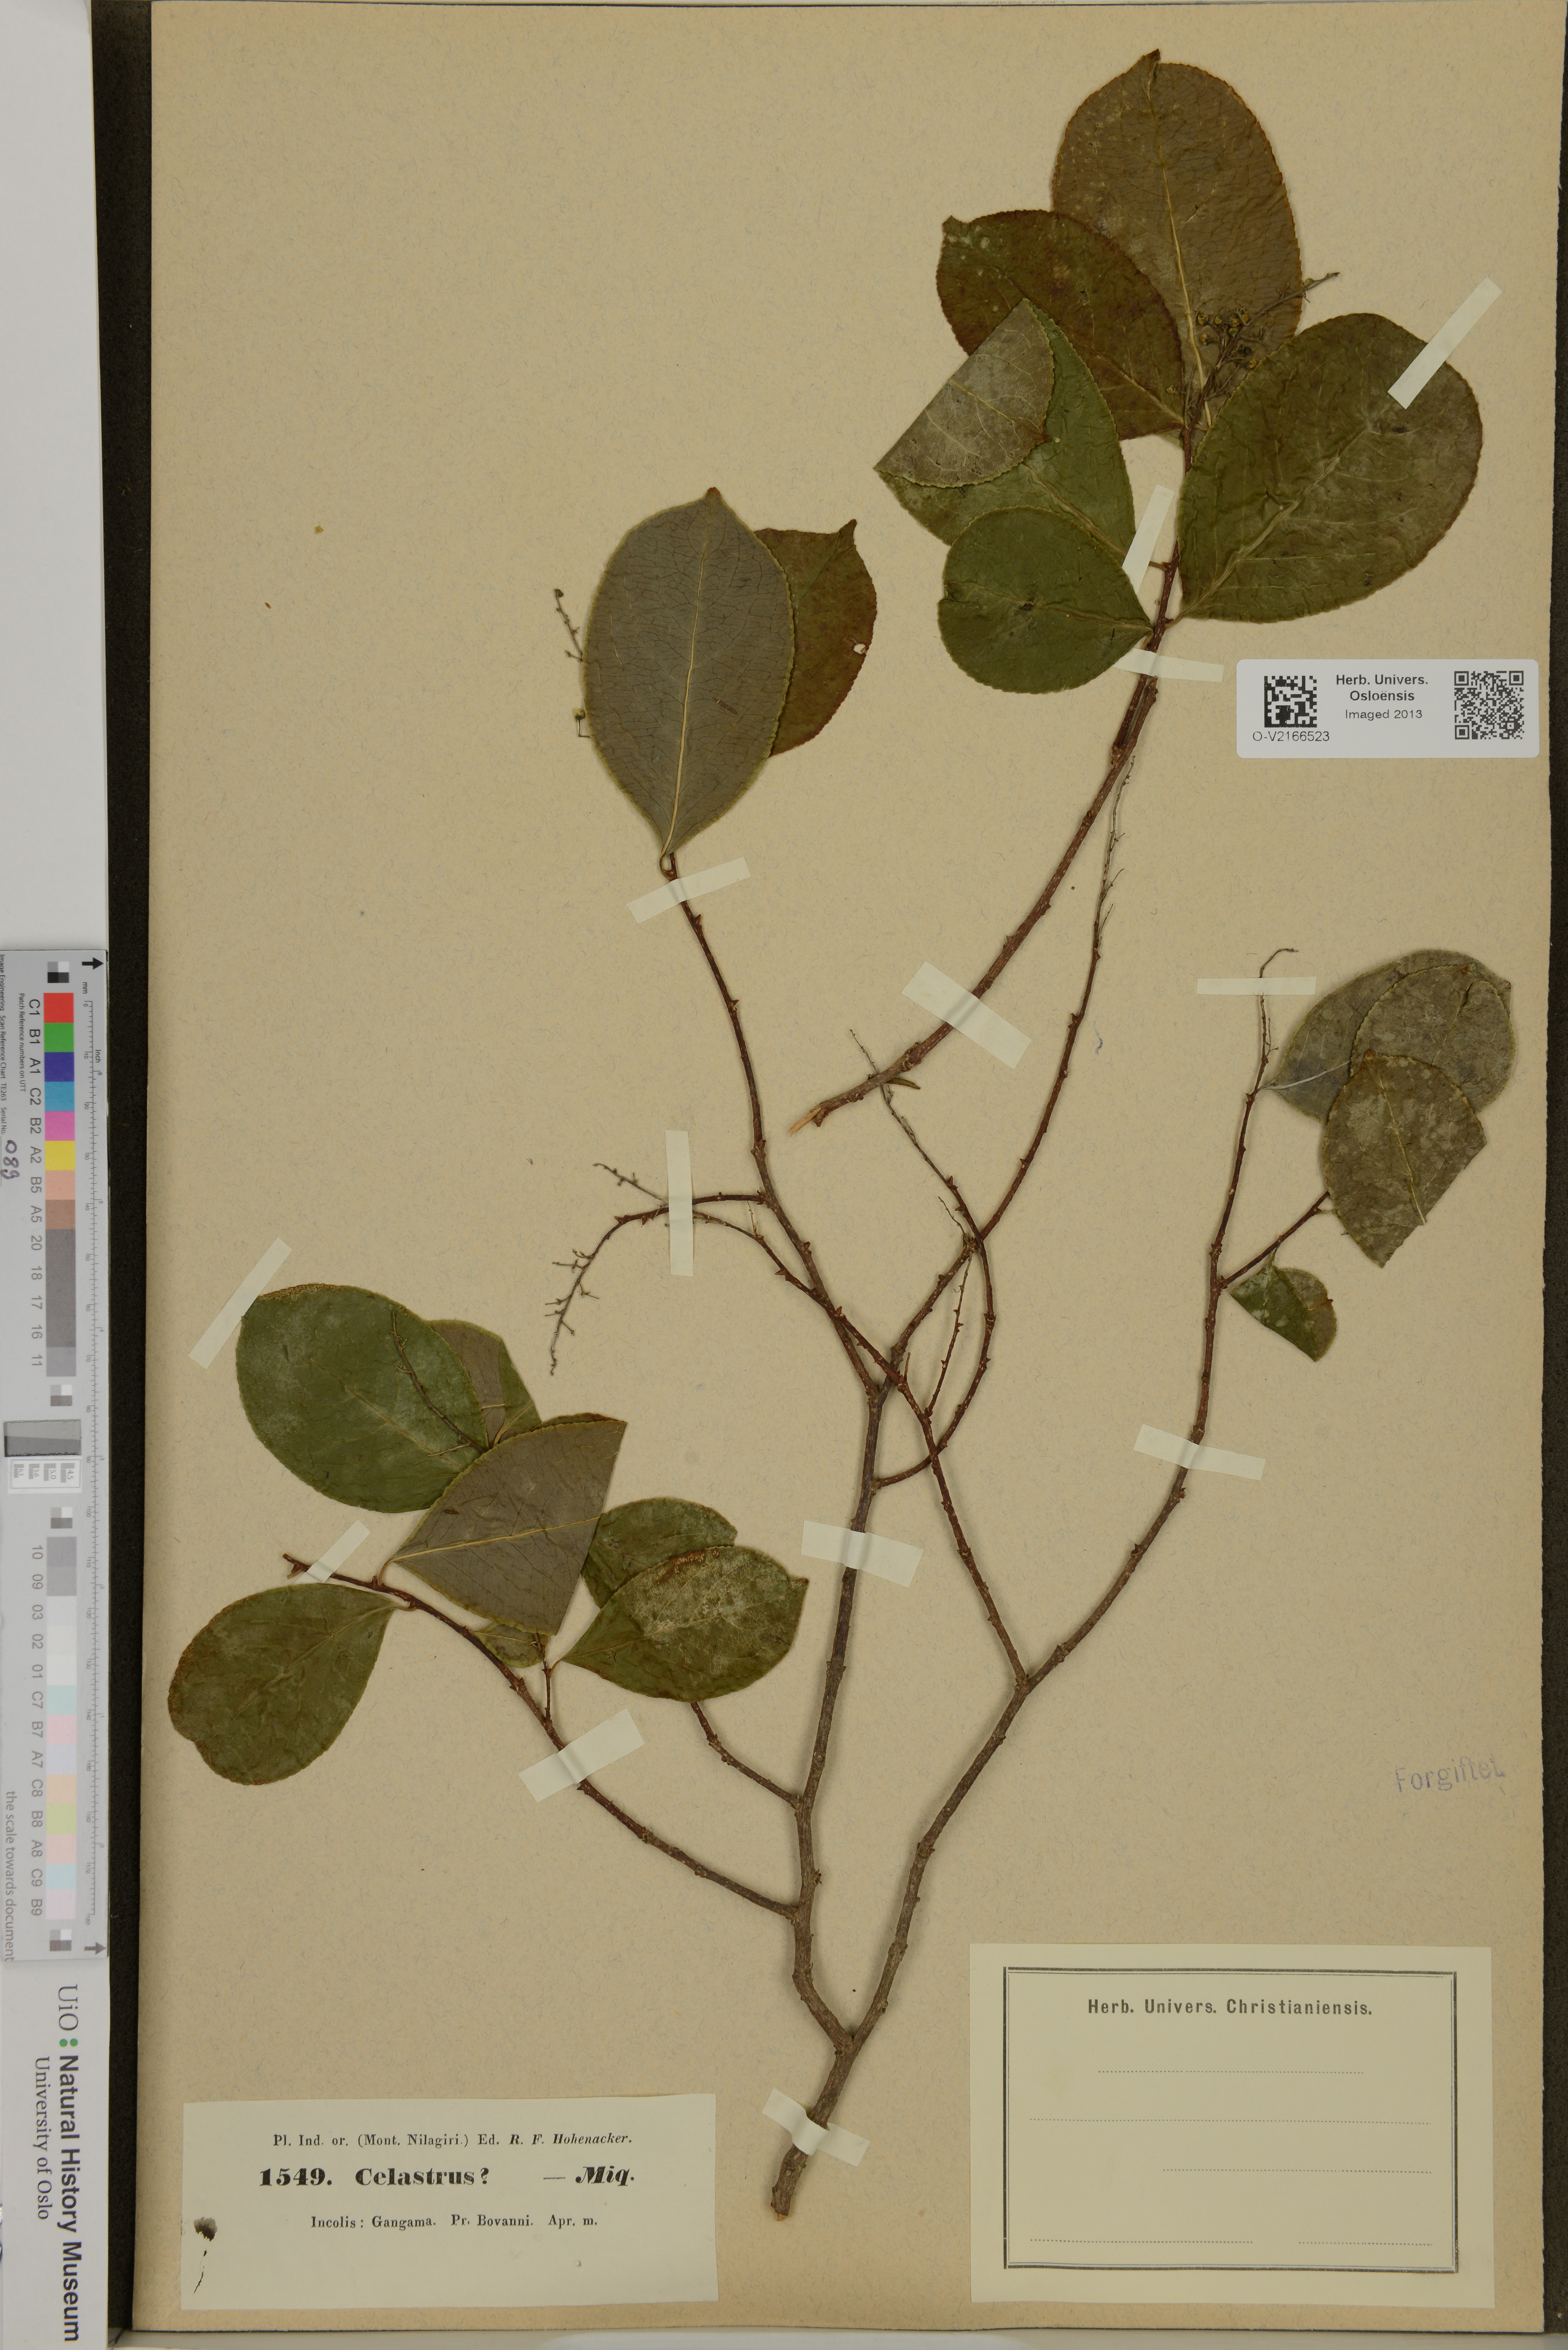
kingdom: Plantae
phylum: Tracheophyta
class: Magnoliopsida
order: Celastrales
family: Celastraceae
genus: Celastrus
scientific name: Celastrus
